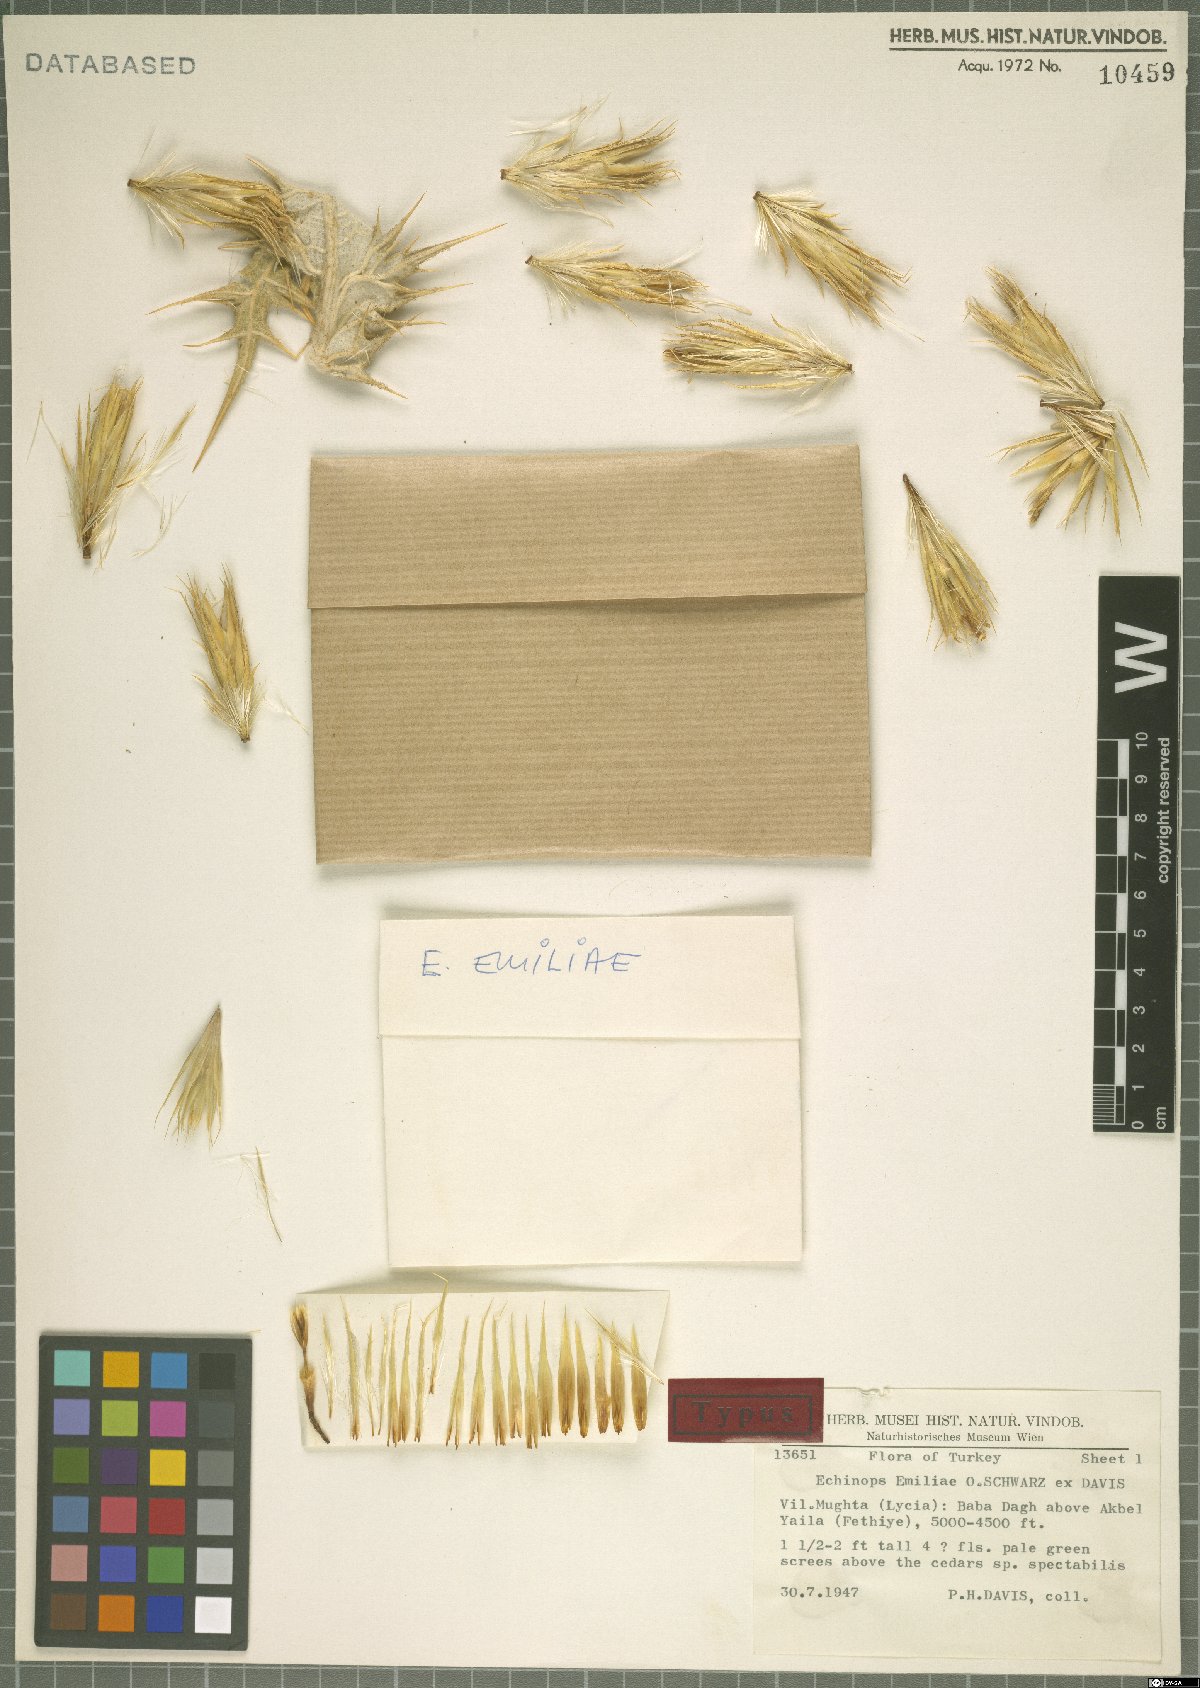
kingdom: Plantae
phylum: Tracheophyta
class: Magnoliopsida
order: Asterales
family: Asteraceae
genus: Echinops
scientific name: Echinops emiliae
